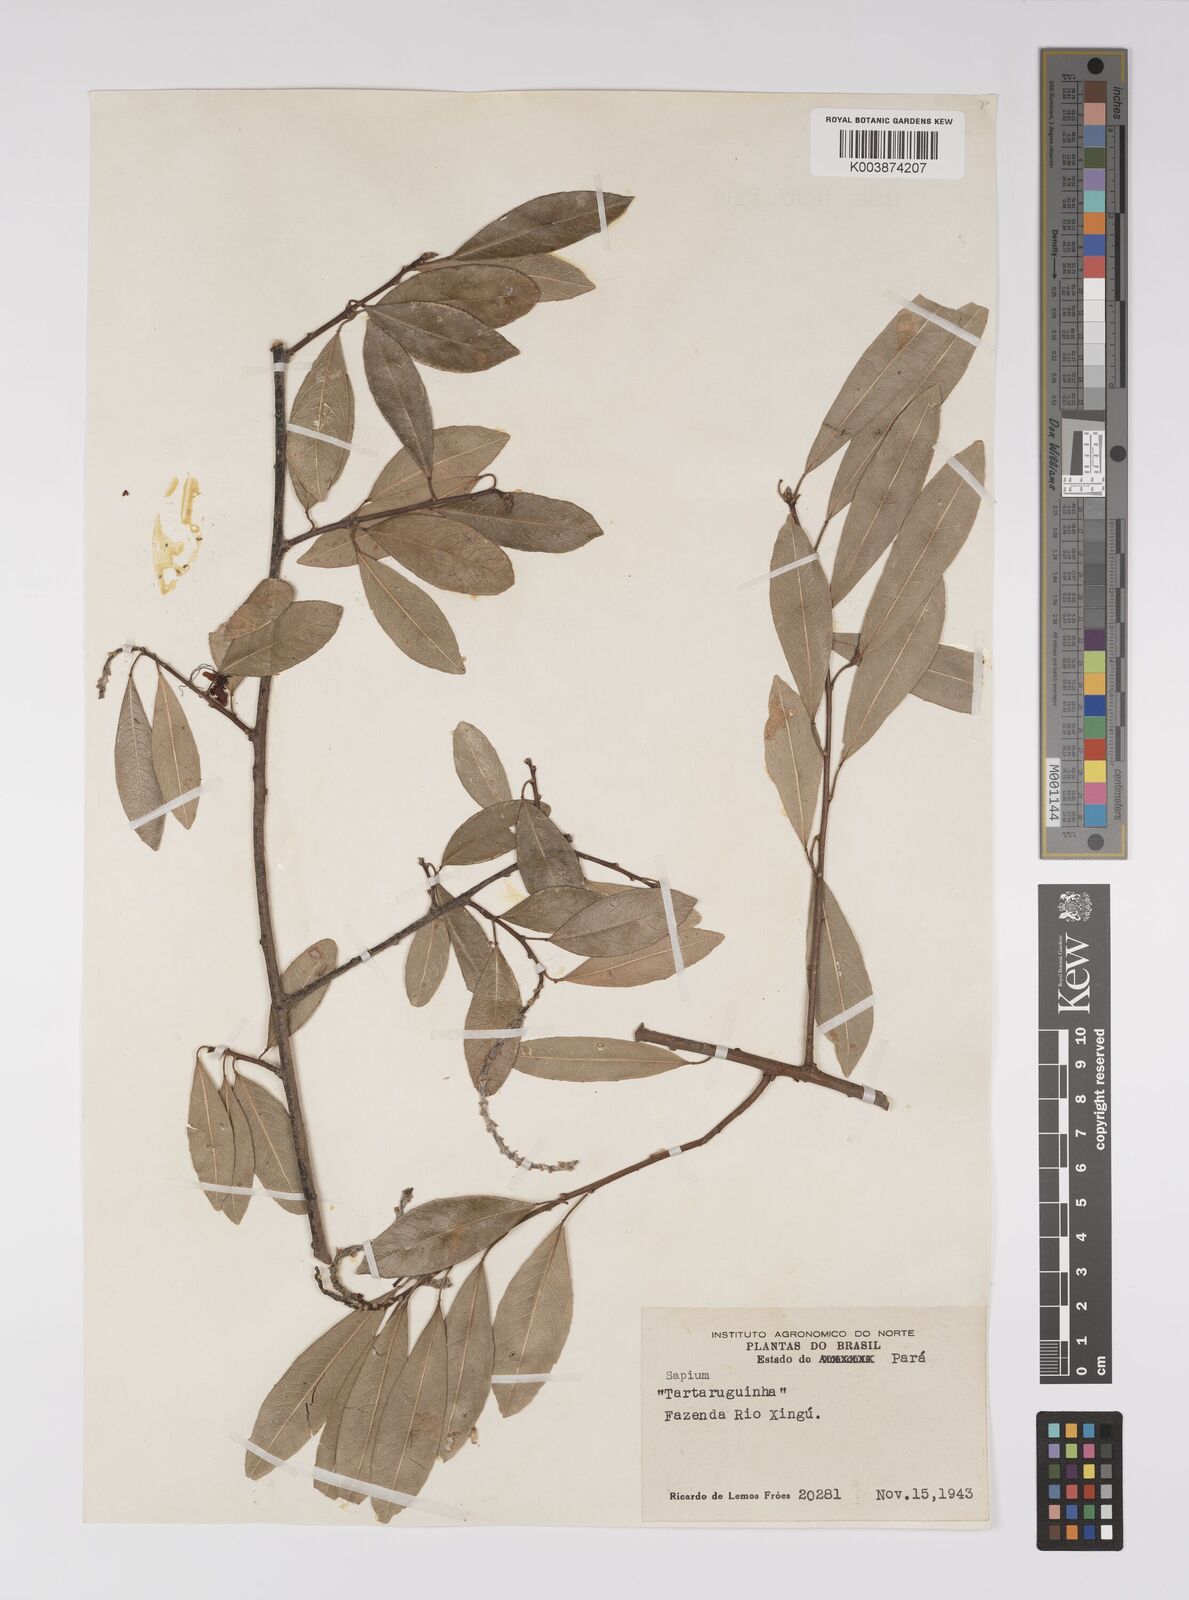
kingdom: Plantae
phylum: Tracheophyta
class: Magnoliopsida
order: Malpighiales
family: Euphorbiaceae
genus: Sapium
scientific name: Sapium
